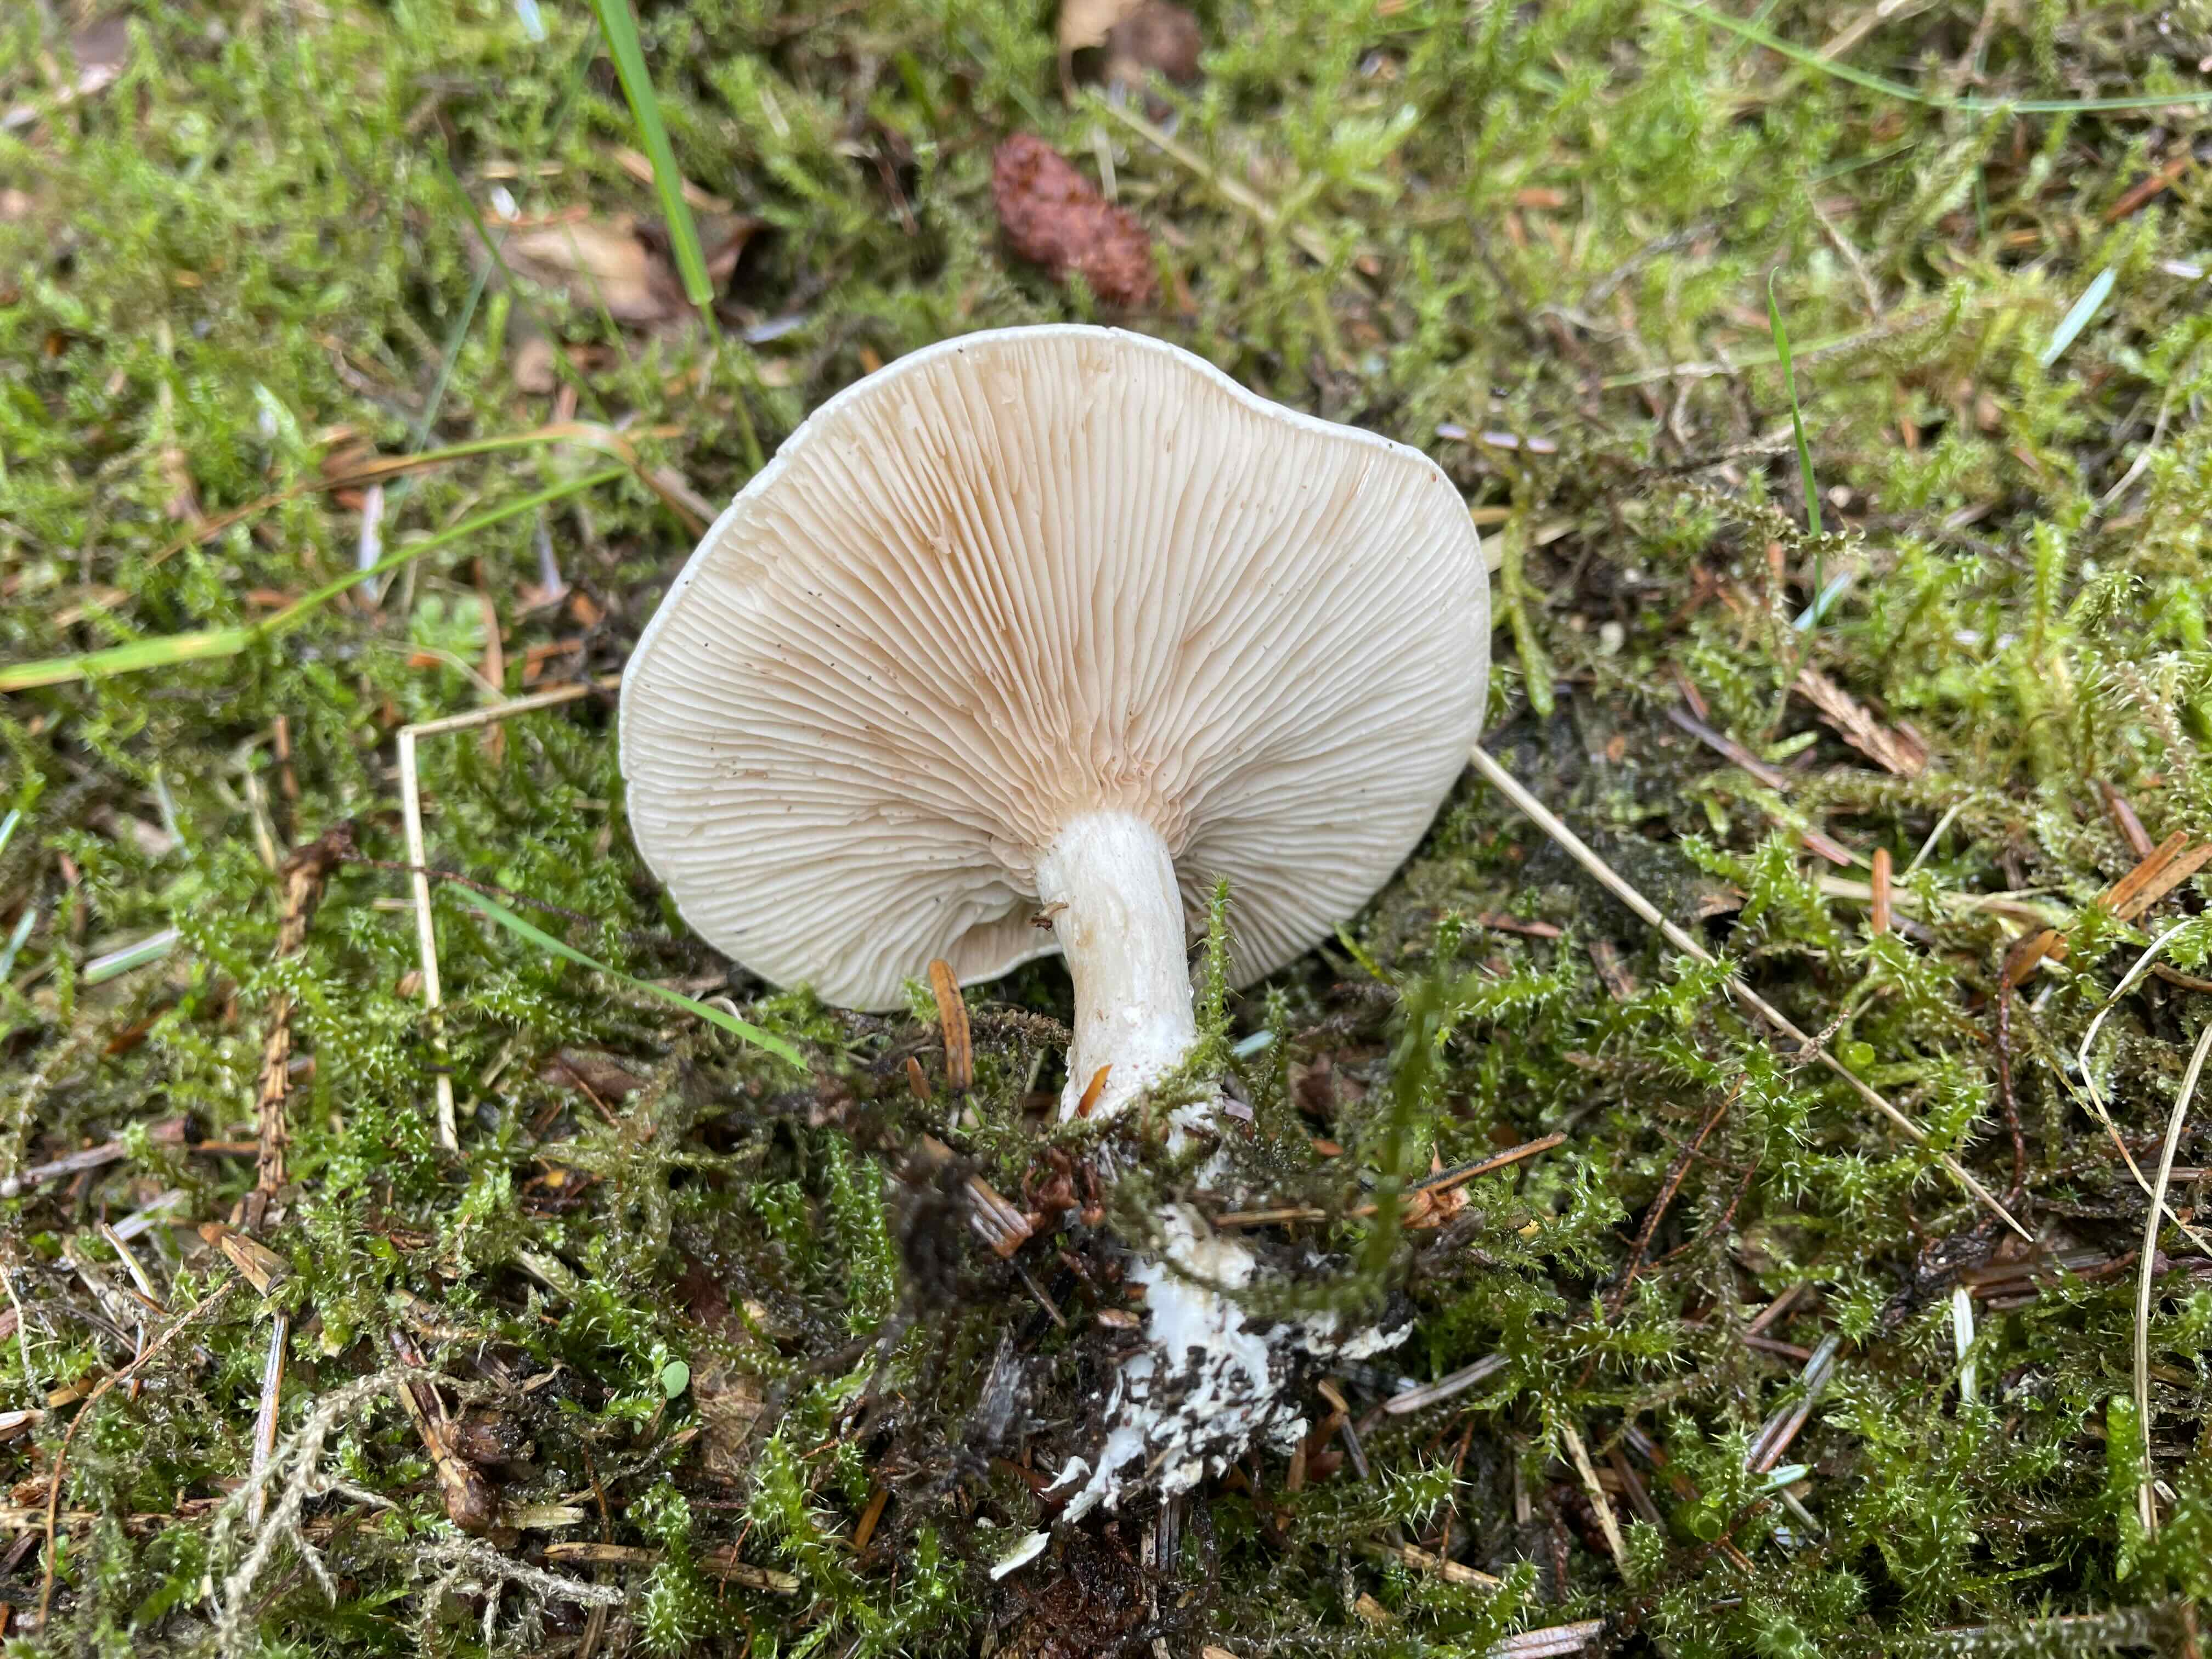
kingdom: Fungi
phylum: Basidiomycota
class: Agaricomycetes
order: Agaricales
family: Entolomataceae
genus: Clitopilus
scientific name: Clitopilus prunulus
